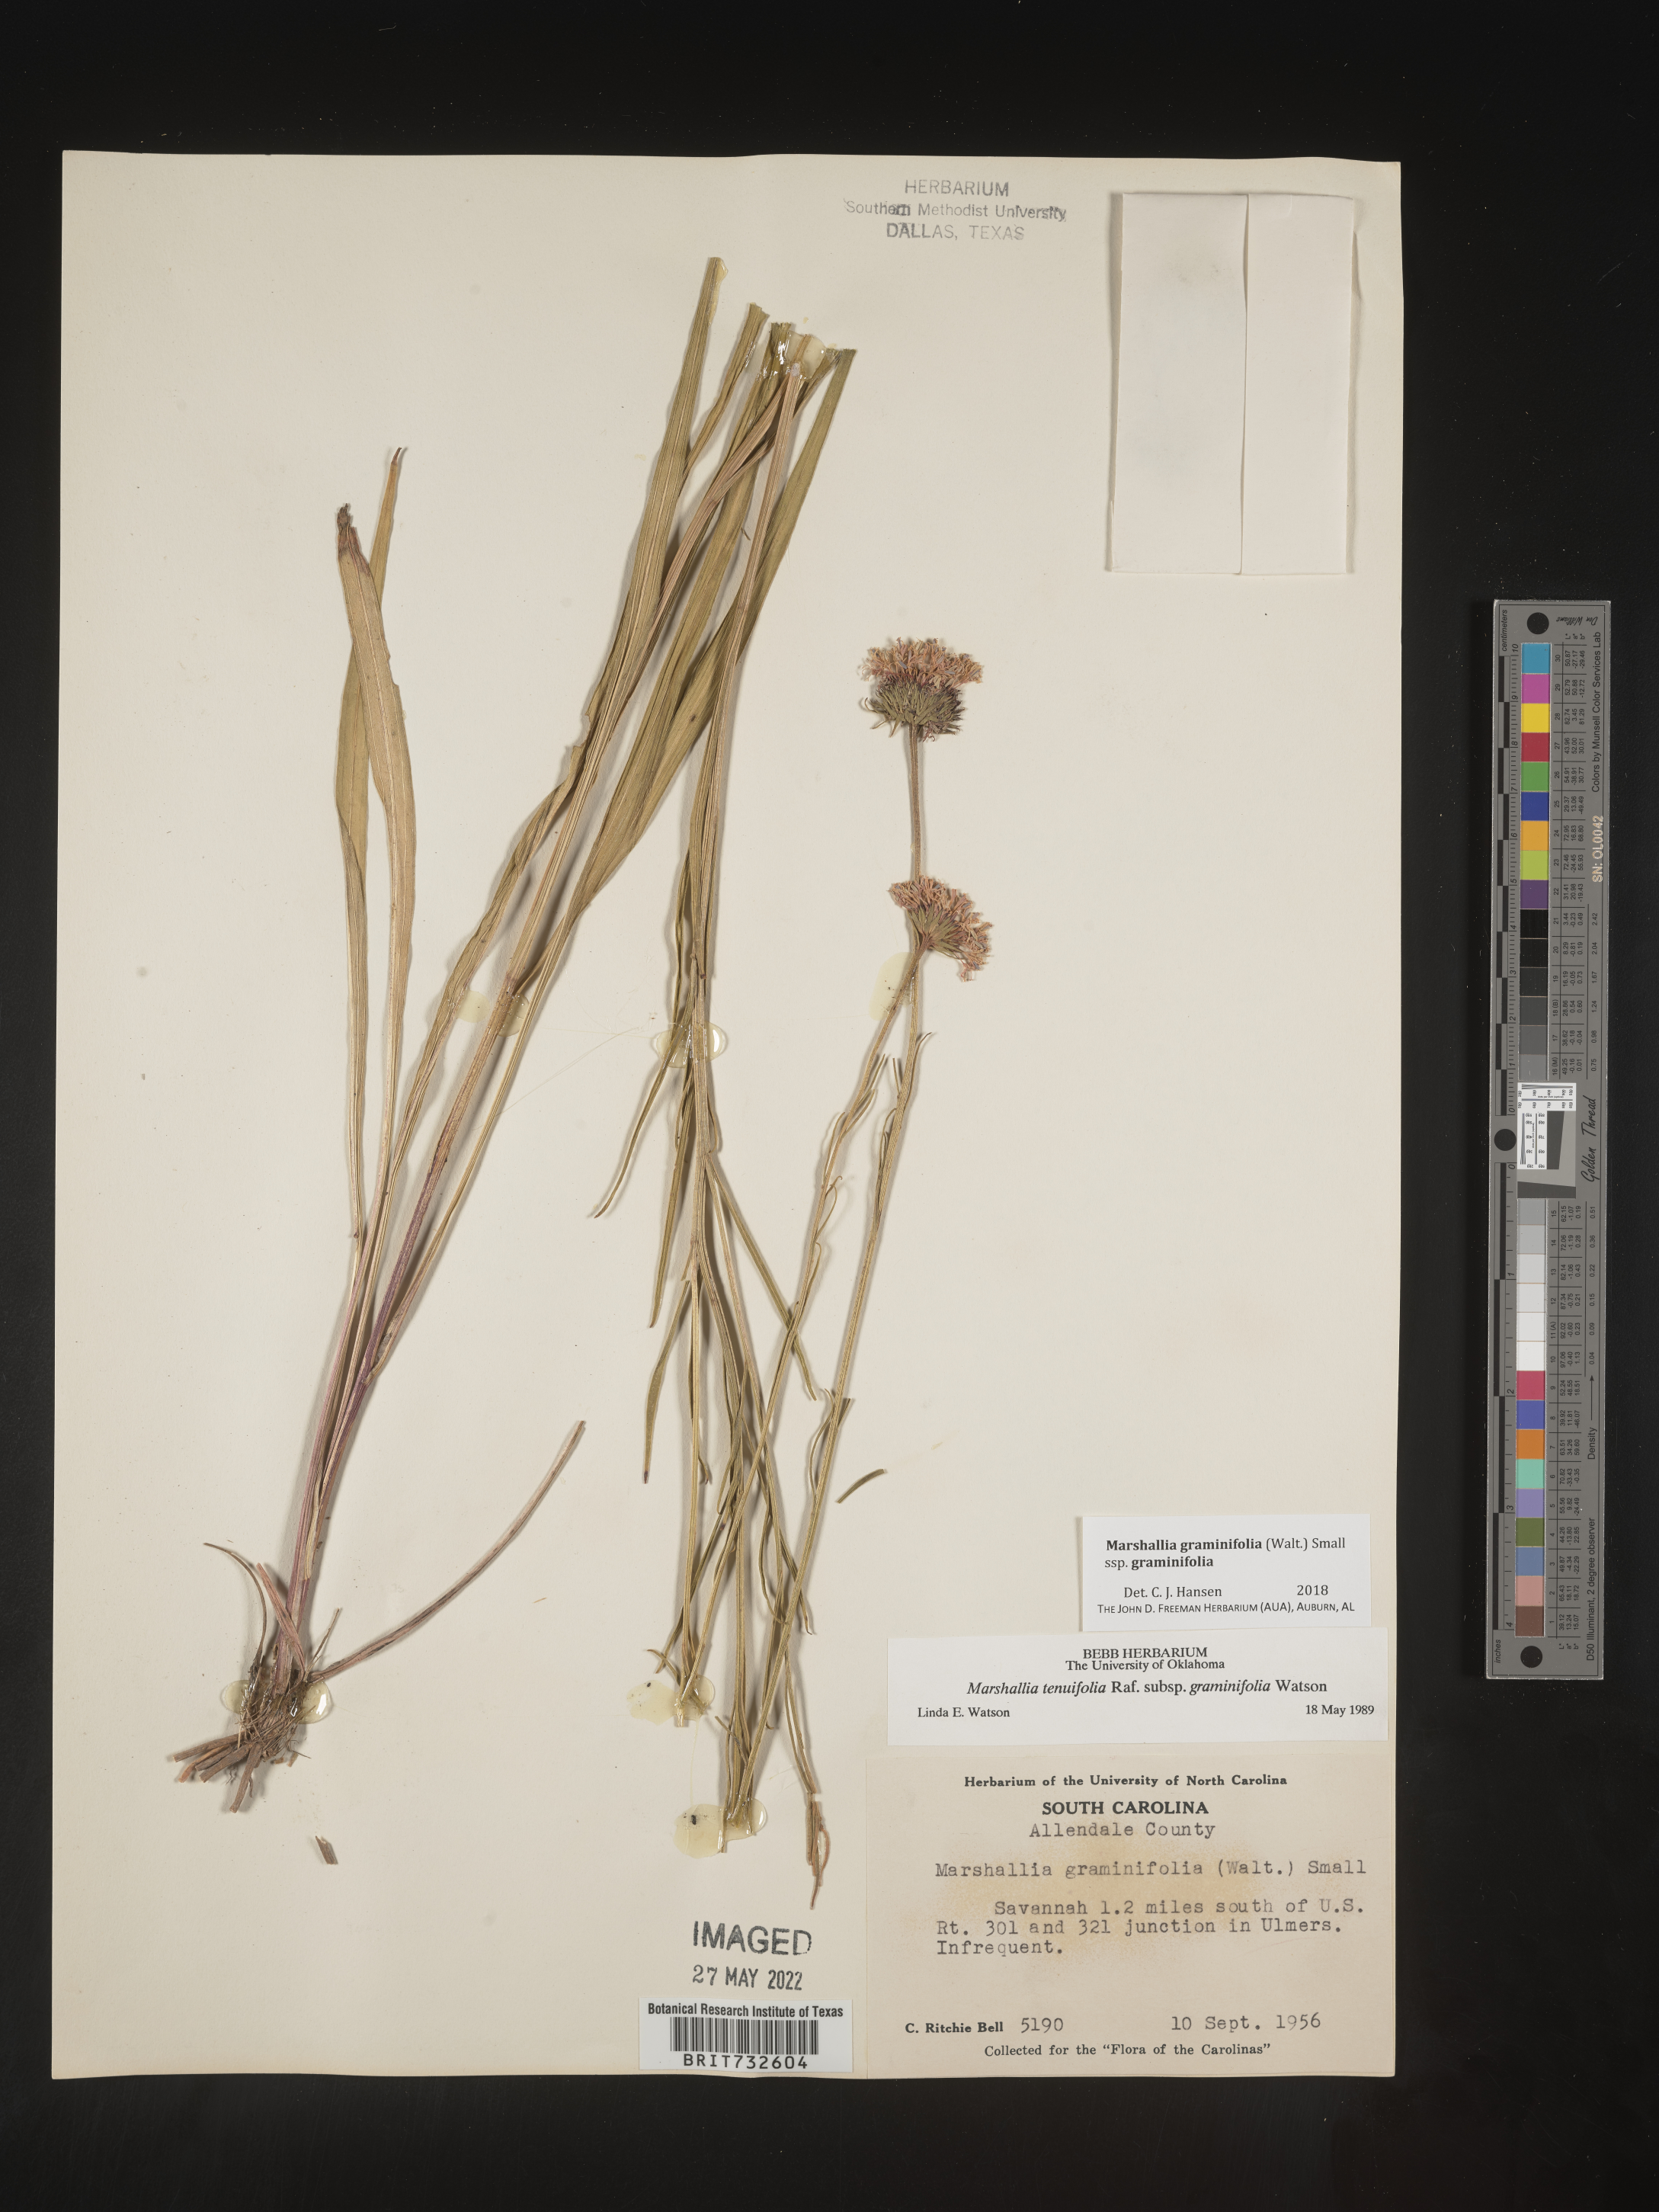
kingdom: Plantae
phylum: Tracheophyta
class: Magnoliopsida
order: Asterales
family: Asteraceae
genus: Marshallia
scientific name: Marshallia graminifolia
